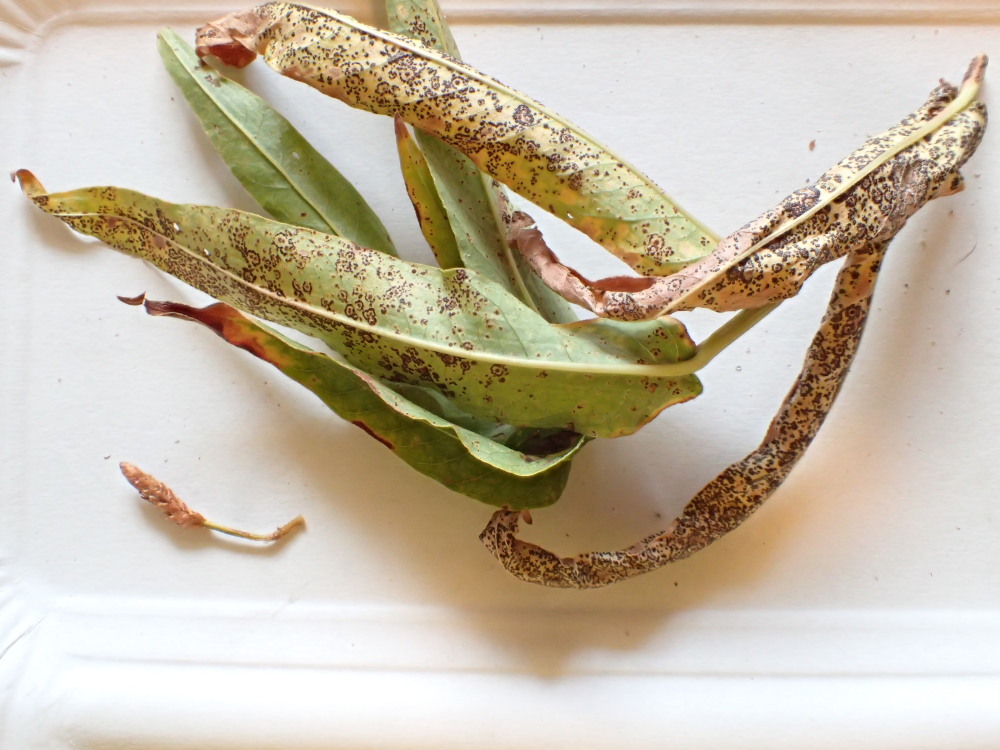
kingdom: Fungi
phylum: Basidiomycota
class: Pucciniomycetes
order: Pucciniales
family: Pucciniaceae
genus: Puccinia
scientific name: Puccinia polygoni-amphibii
